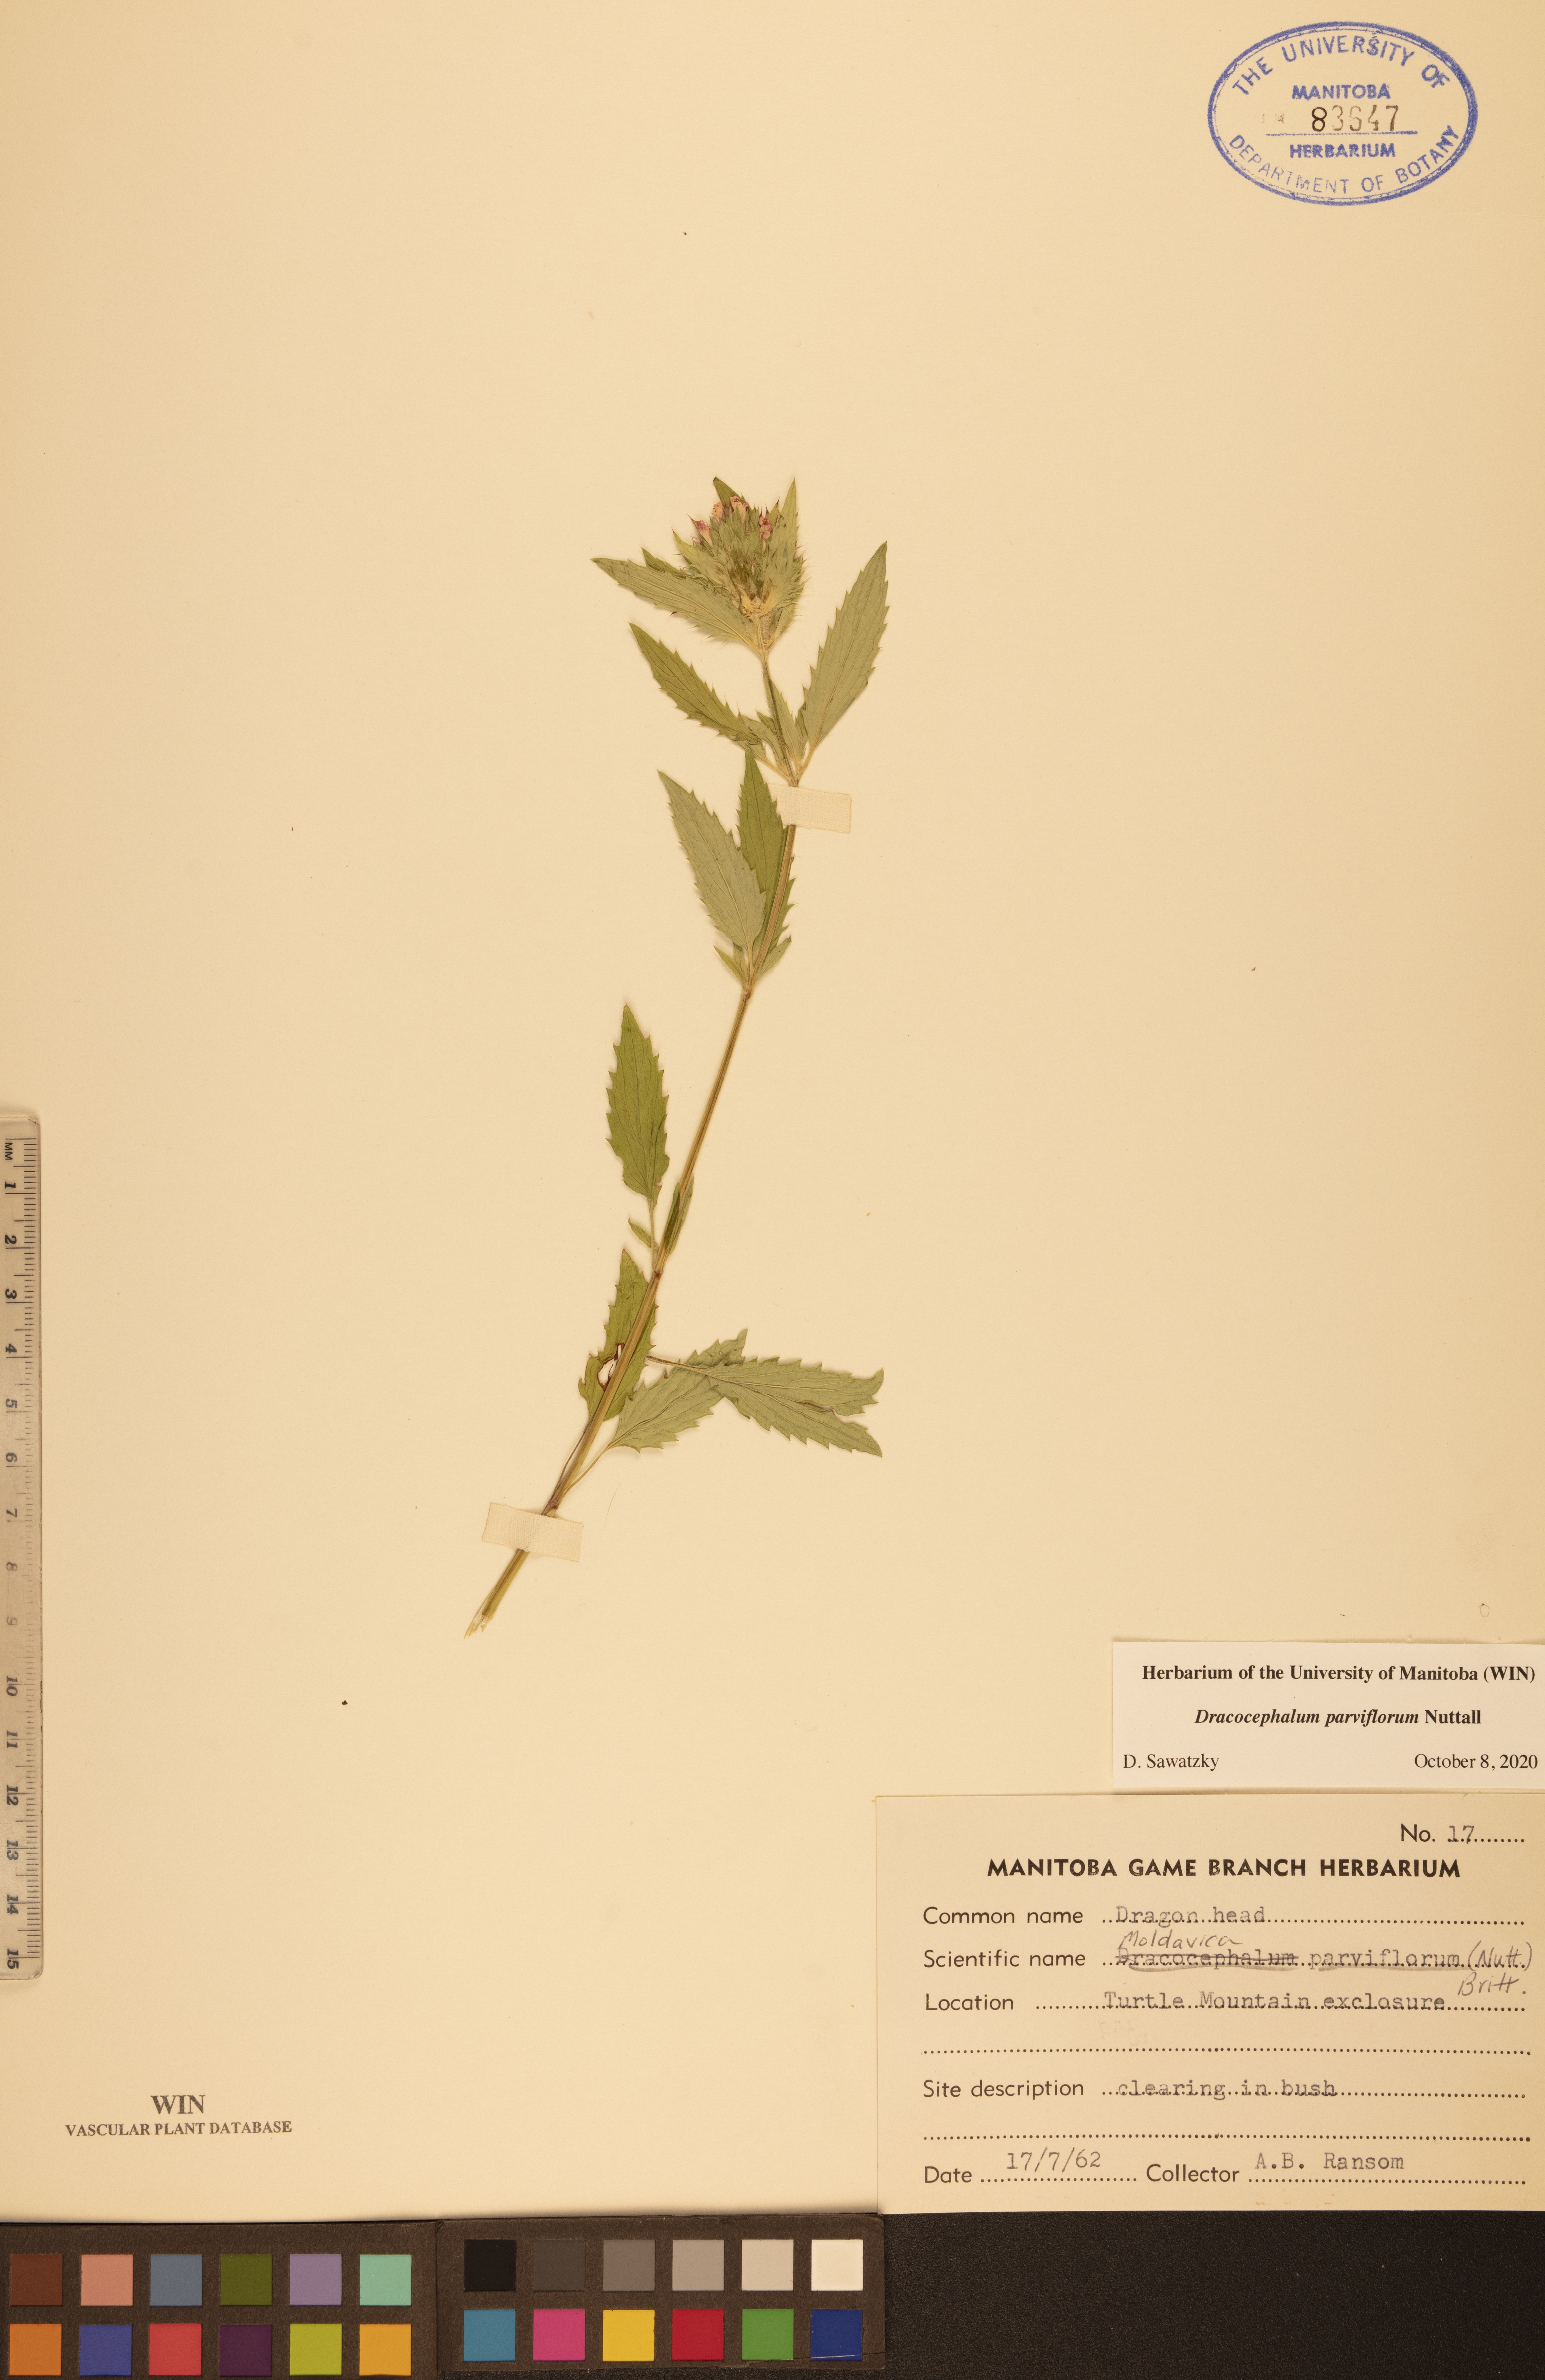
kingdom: Plantae
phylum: Tracheophyta
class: Magnoliopsida
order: Lamiales
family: Lamiaceae
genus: Dracocephalum
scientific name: Dracocephalum parviflorum
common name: American dragonhead
